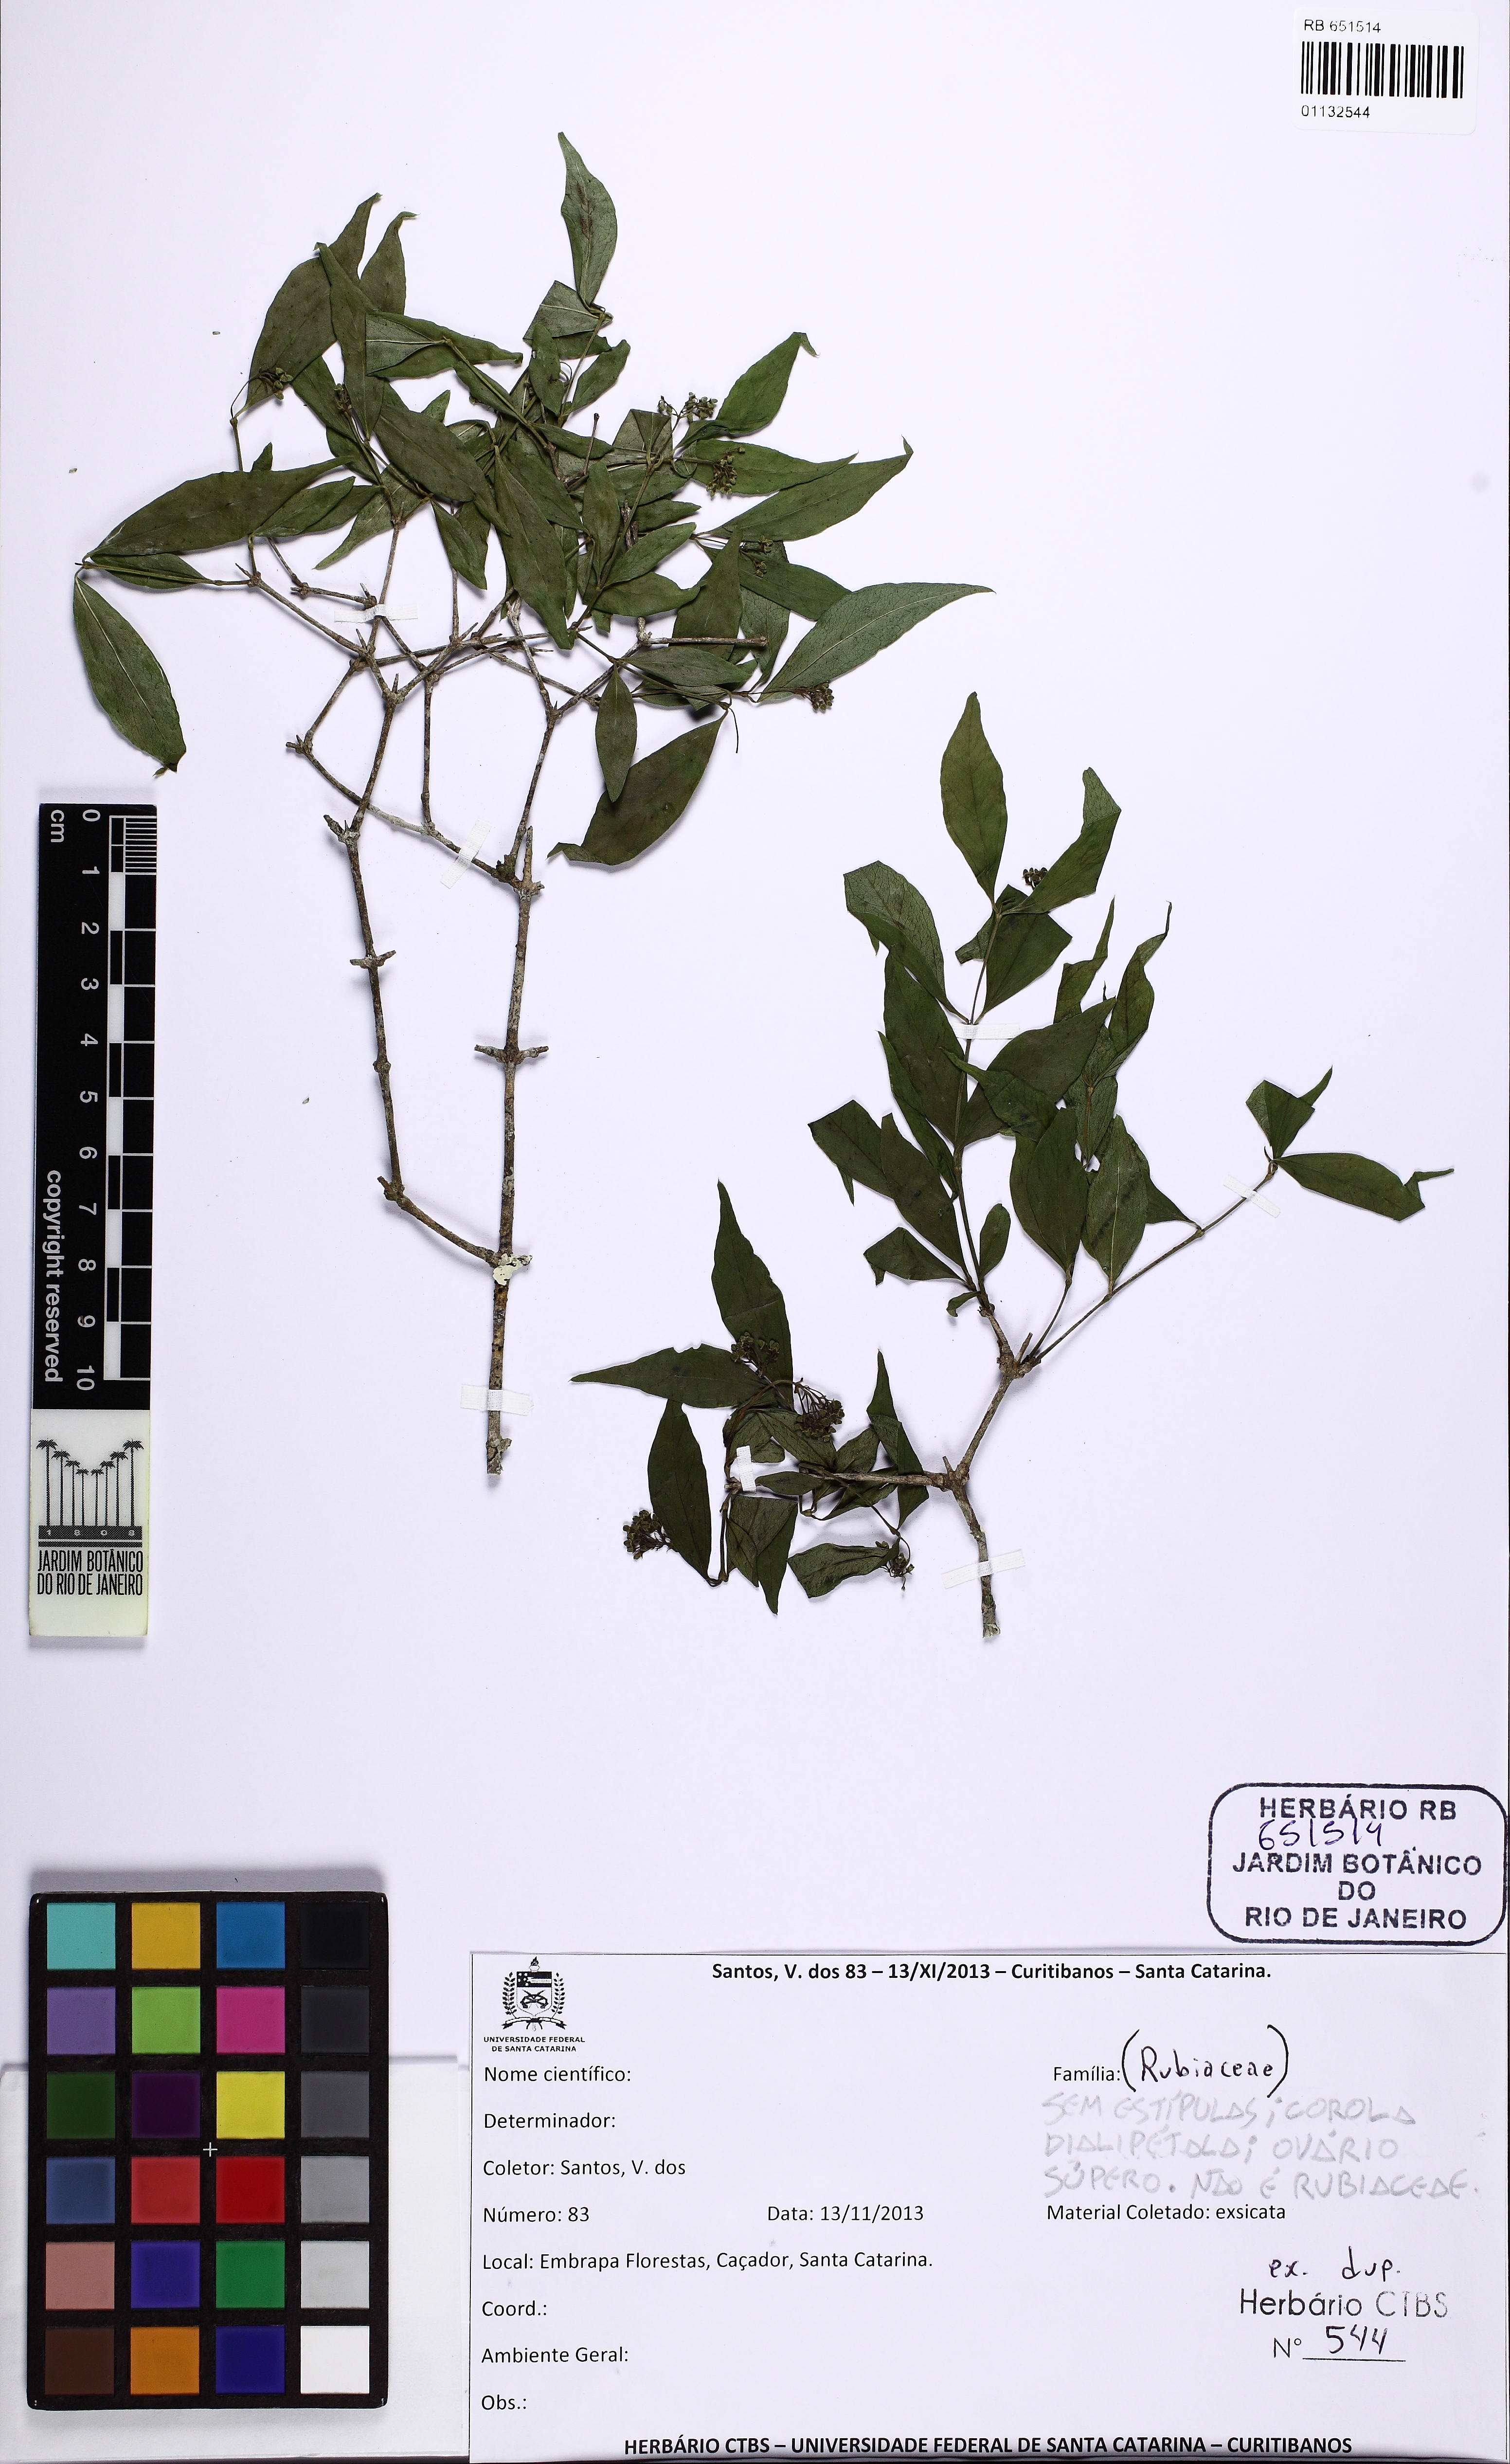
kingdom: Plantae
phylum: Tracheophyta
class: Magnoliopsida
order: Gentianales
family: Loganiaceae
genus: Strychnos
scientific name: Strychnos brasiliensis
